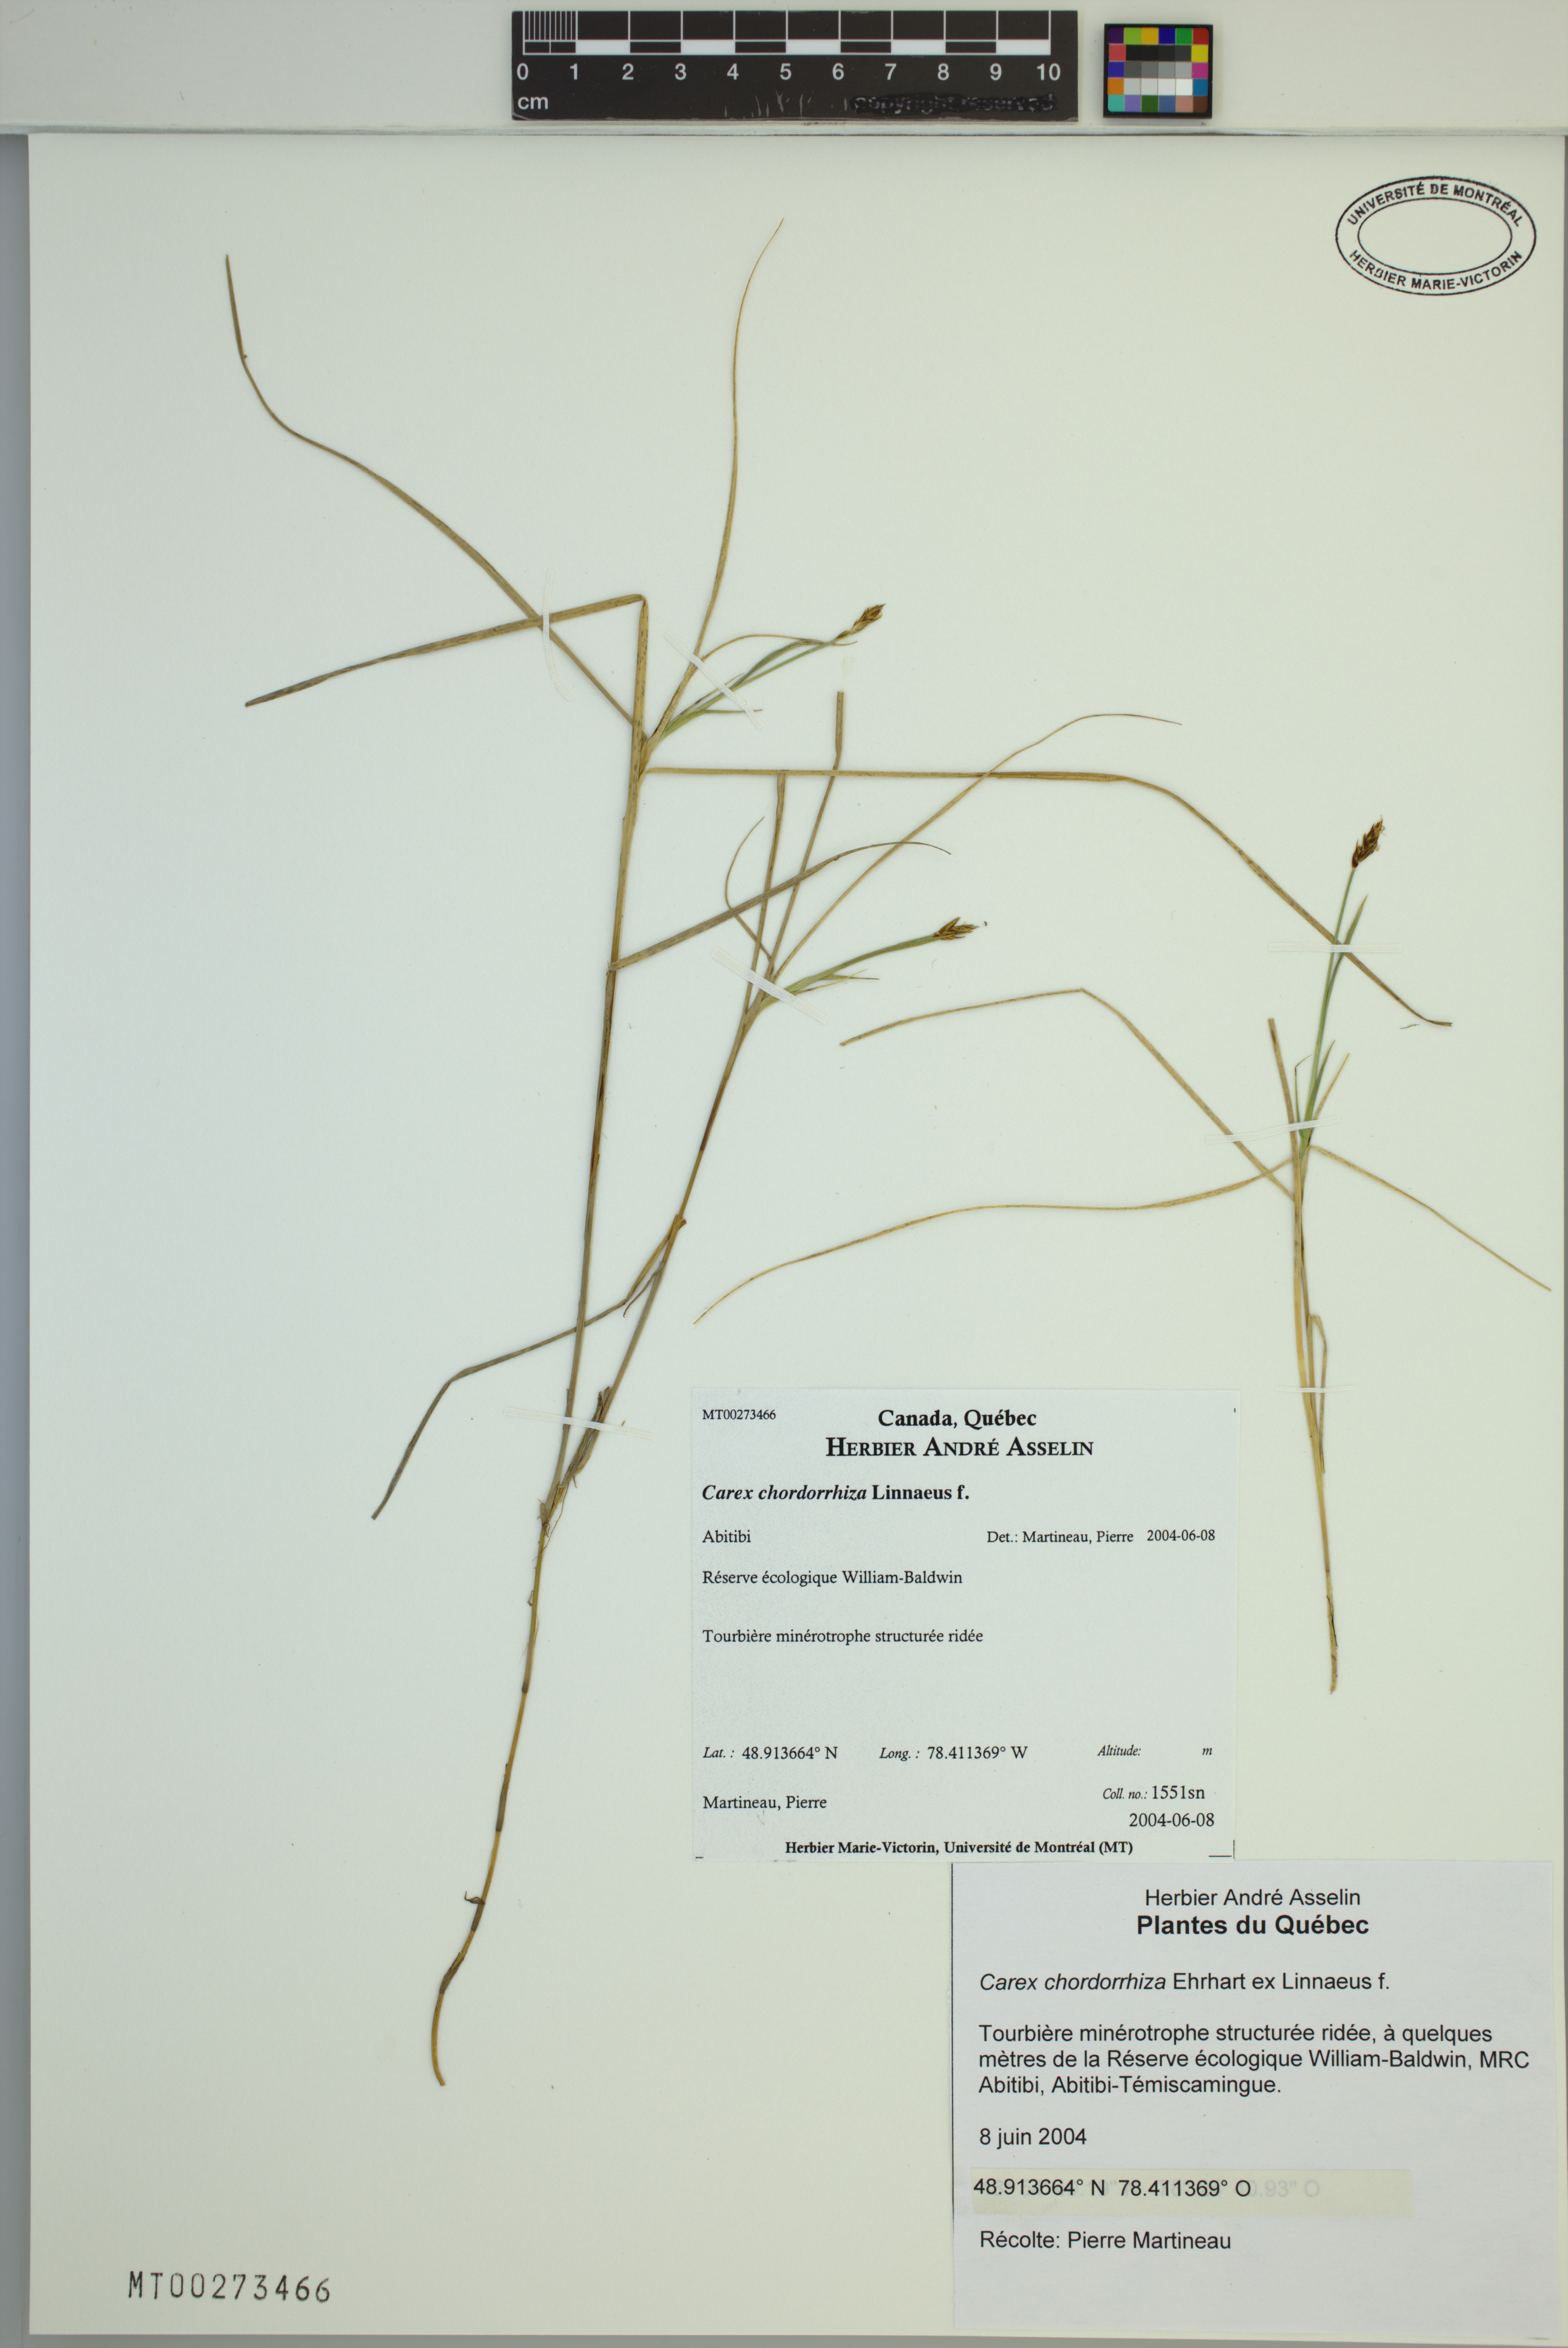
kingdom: Plantae
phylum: Tracheophyta
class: Liliopsida
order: Poales
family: Cyperaceae
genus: Carex
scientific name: Carex chordorrhiza
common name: String sedge
